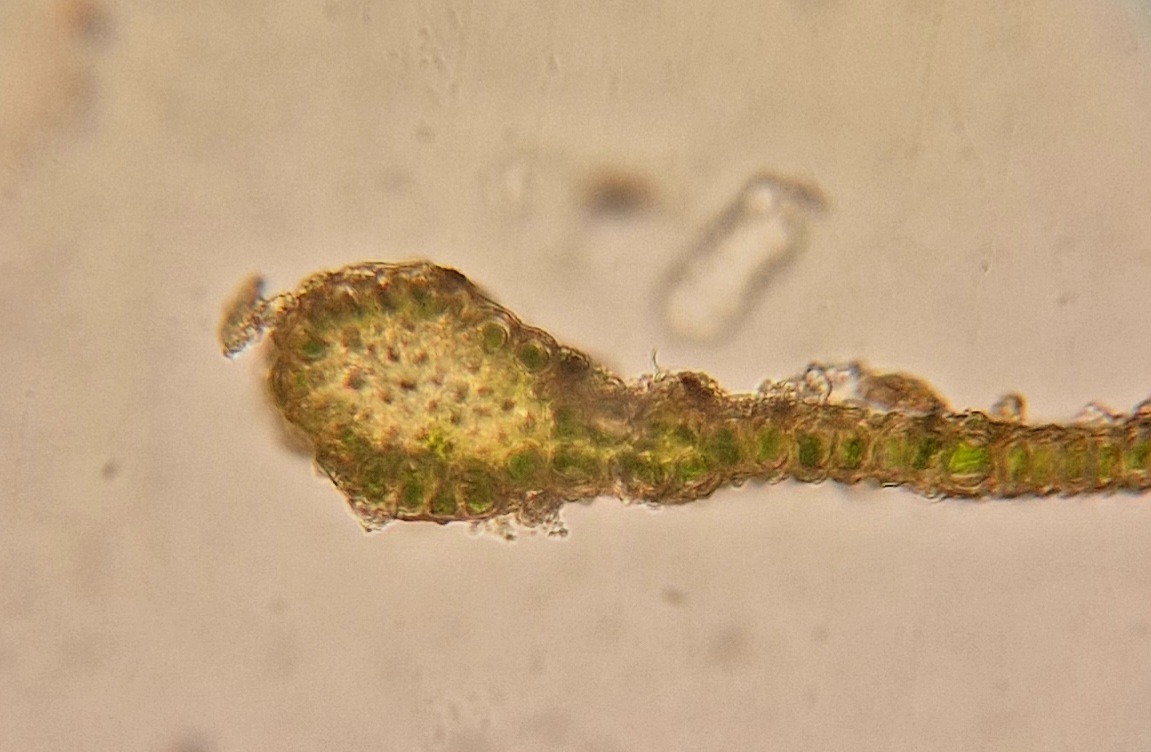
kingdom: Plantae
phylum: Bryophyta
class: Bryopsida
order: Pottiales
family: Pottiaceae
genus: Cinclidotus
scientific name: Cinclidotus fontinaloides
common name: Kilde-rammeblad
